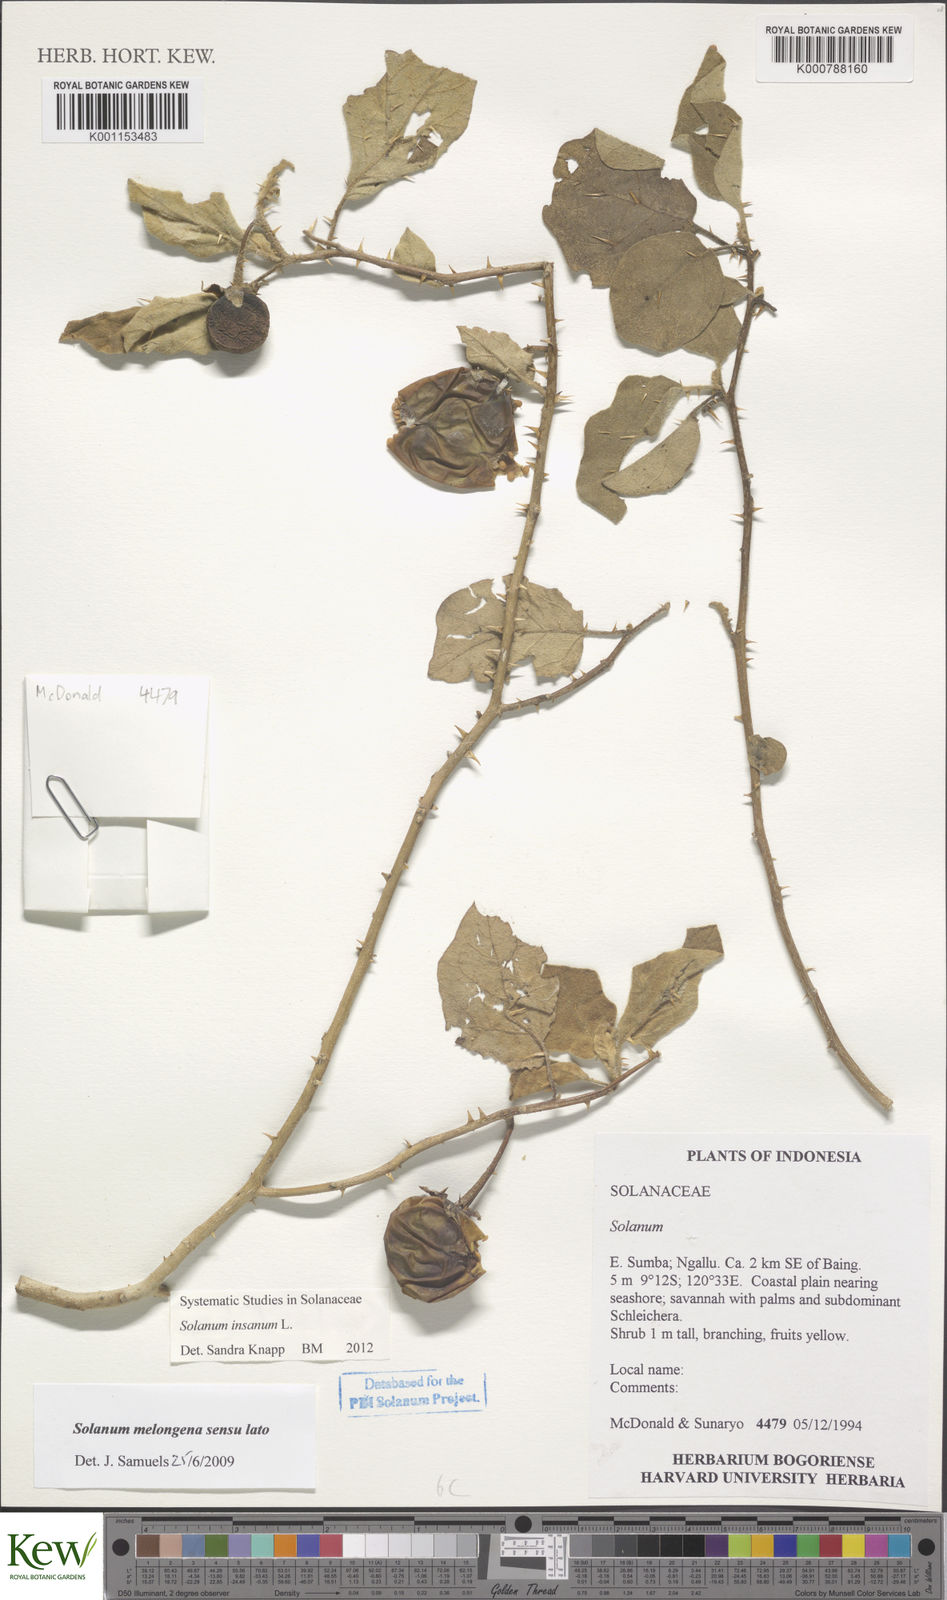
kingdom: Plantae
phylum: Tracheophyta
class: Magnoliopsida
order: Solanales
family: Solanaceae
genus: Solanum
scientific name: Solanum insanum
